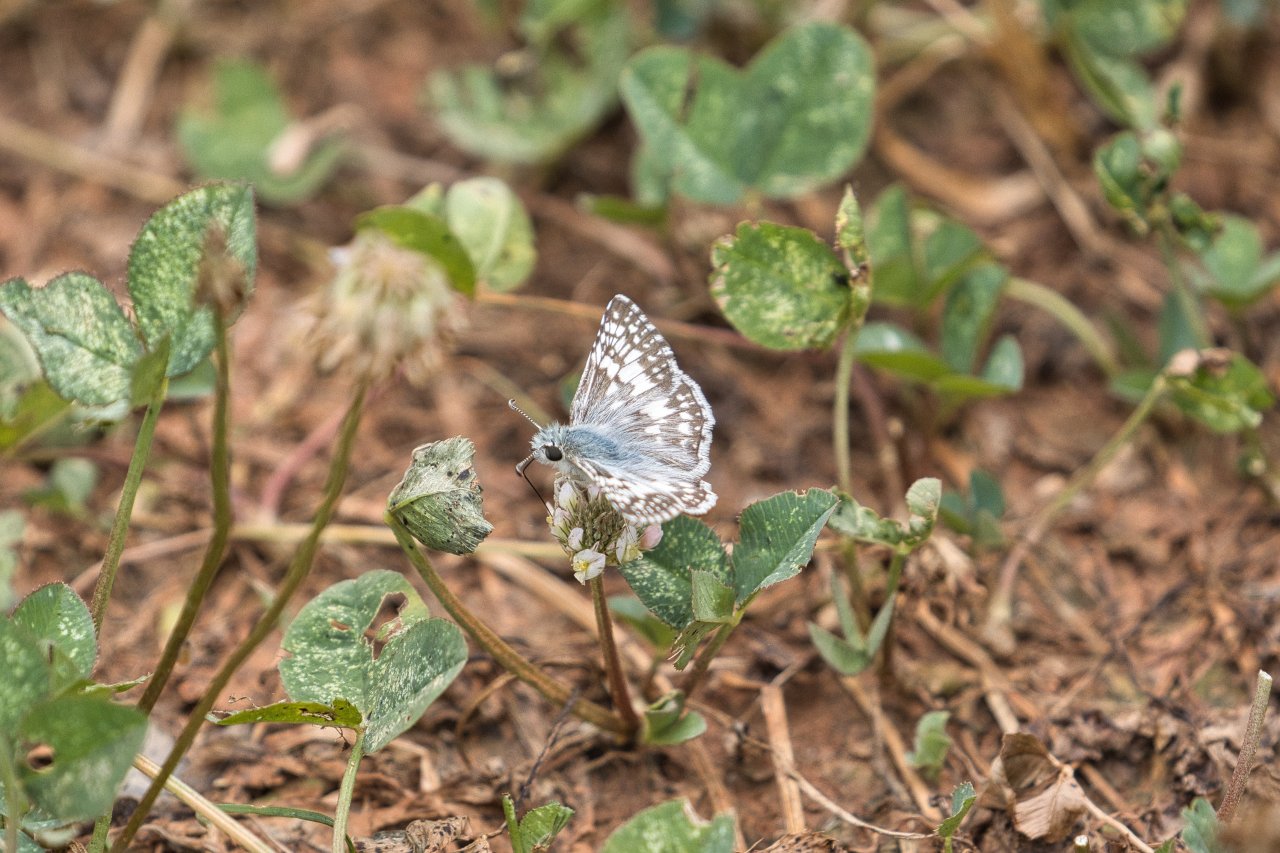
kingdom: Animalia
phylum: Arthropoda
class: Insecta
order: Lepidoptera
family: Hesperiidae
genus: Pyrgus
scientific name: Pyrgus communis
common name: Common Checkered-Skipper
